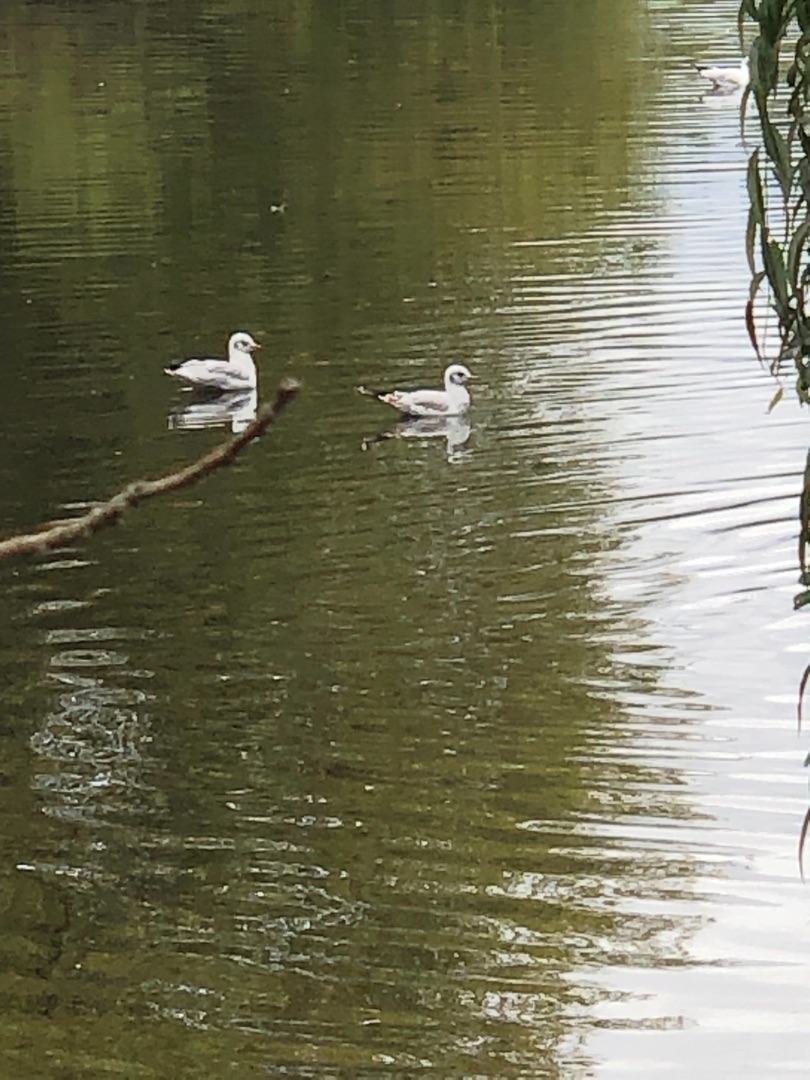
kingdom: Animalia
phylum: Chordata
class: Aves
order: Charadriiformes
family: Laridae
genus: Chroicocephalus
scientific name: Chroicocephalus ridibundus
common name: Hættemåge
